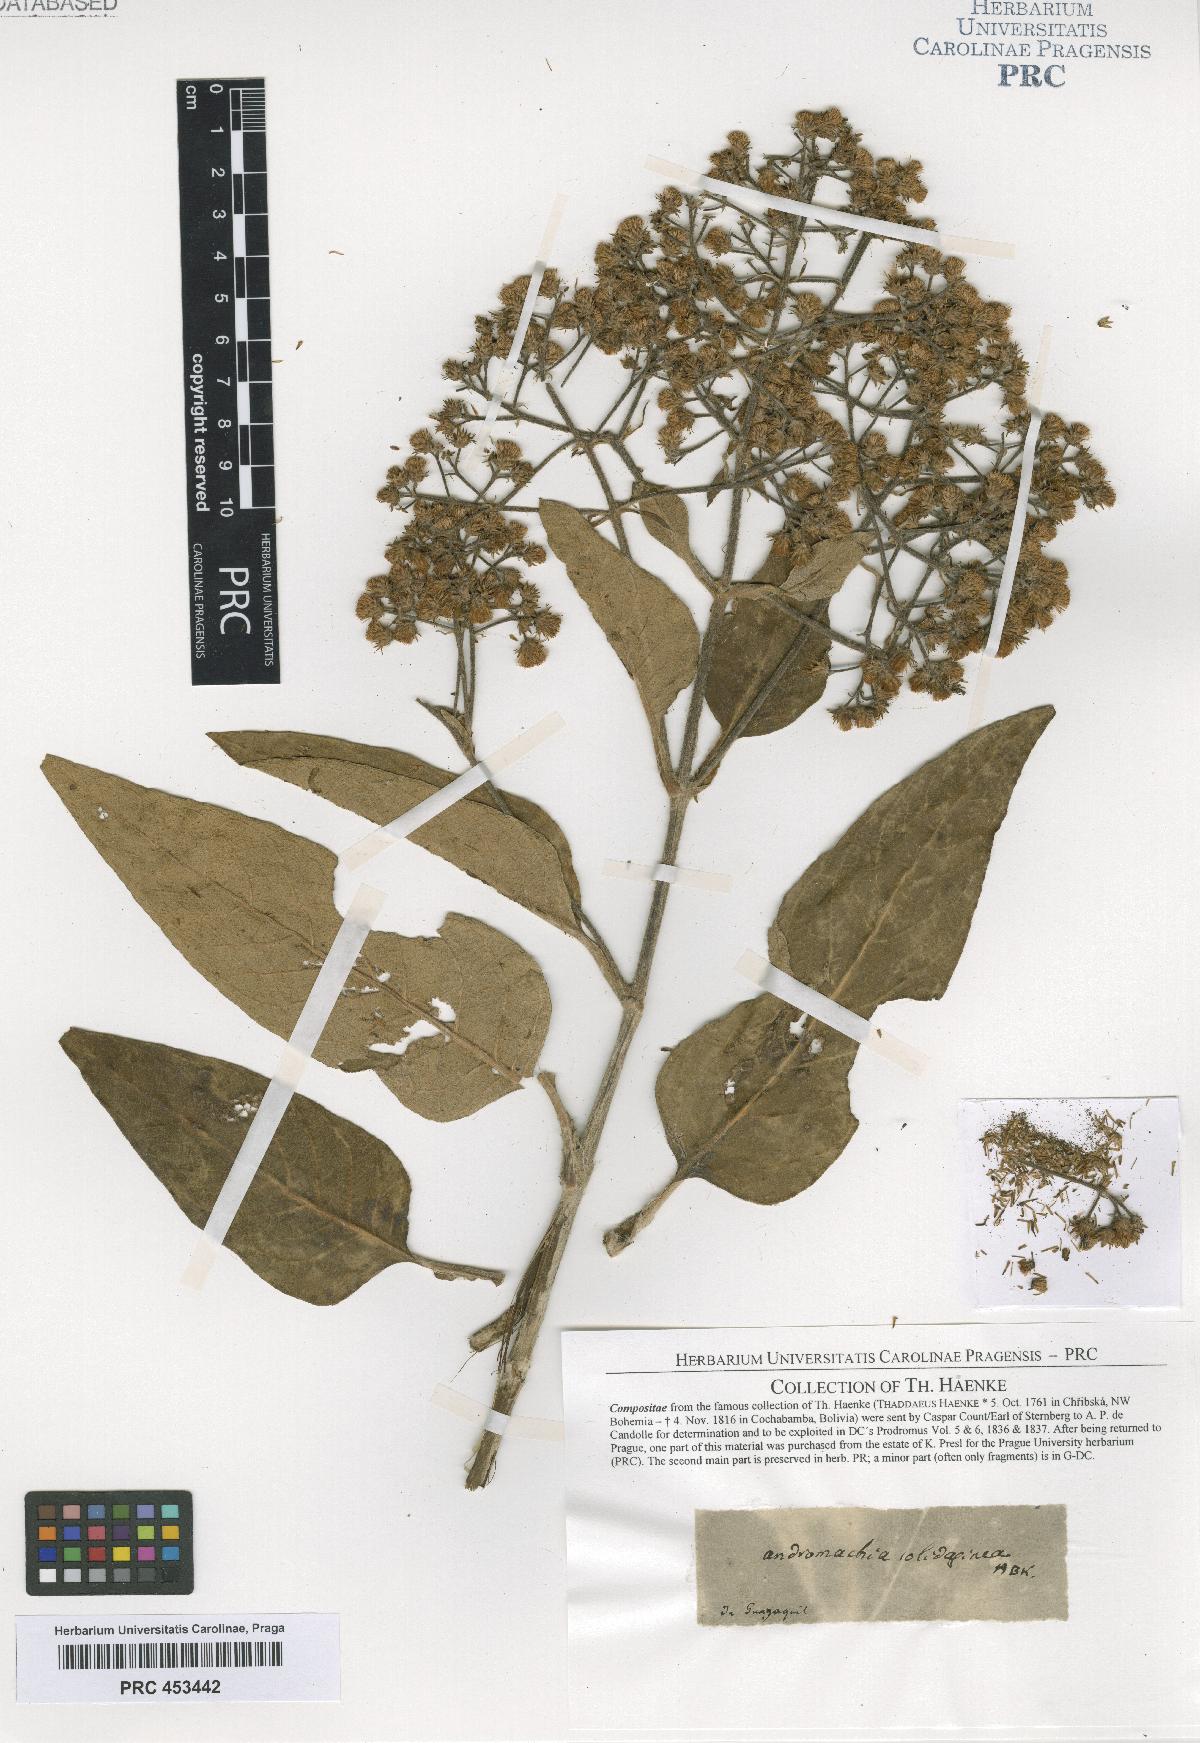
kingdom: Plantae
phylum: Tracheophyta
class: Magnoliopsida
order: Asterales
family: Asteraceae
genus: Andromachia
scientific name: Andromachia
